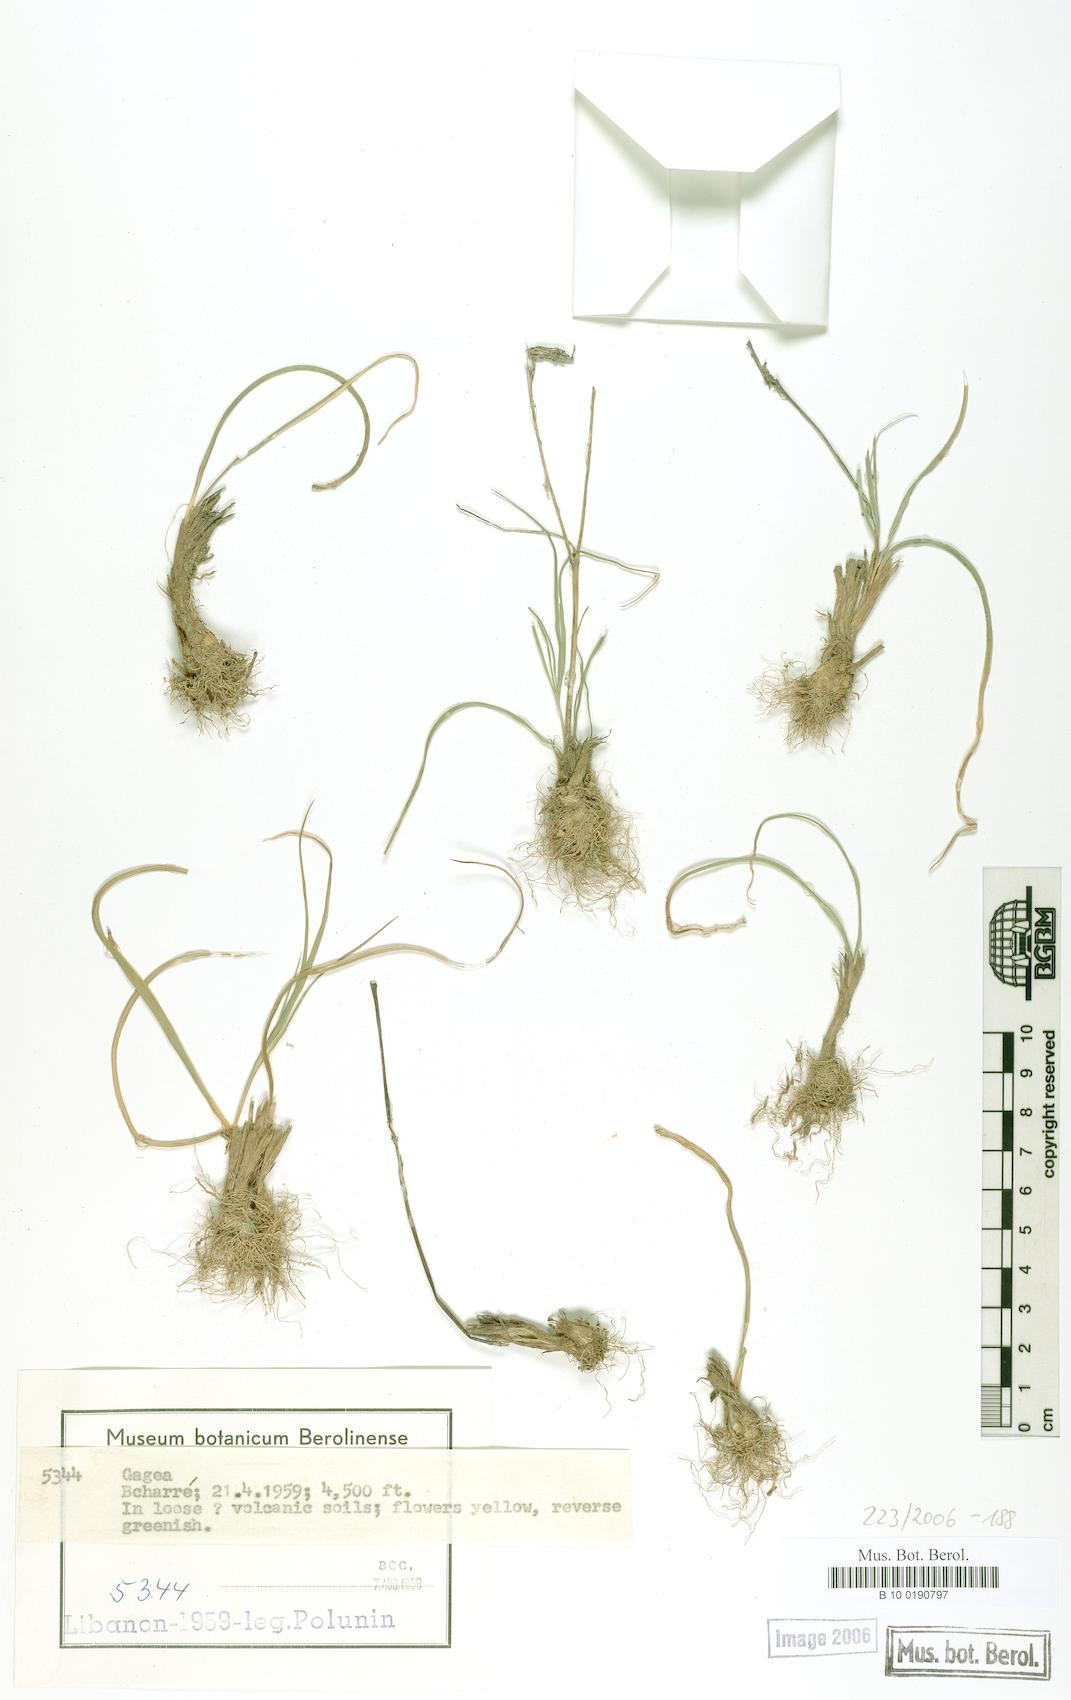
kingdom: Plantae
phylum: Tracheophyta
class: Liliopsida
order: Liliales
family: Liliaceae
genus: Gagea
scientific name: Gagea
